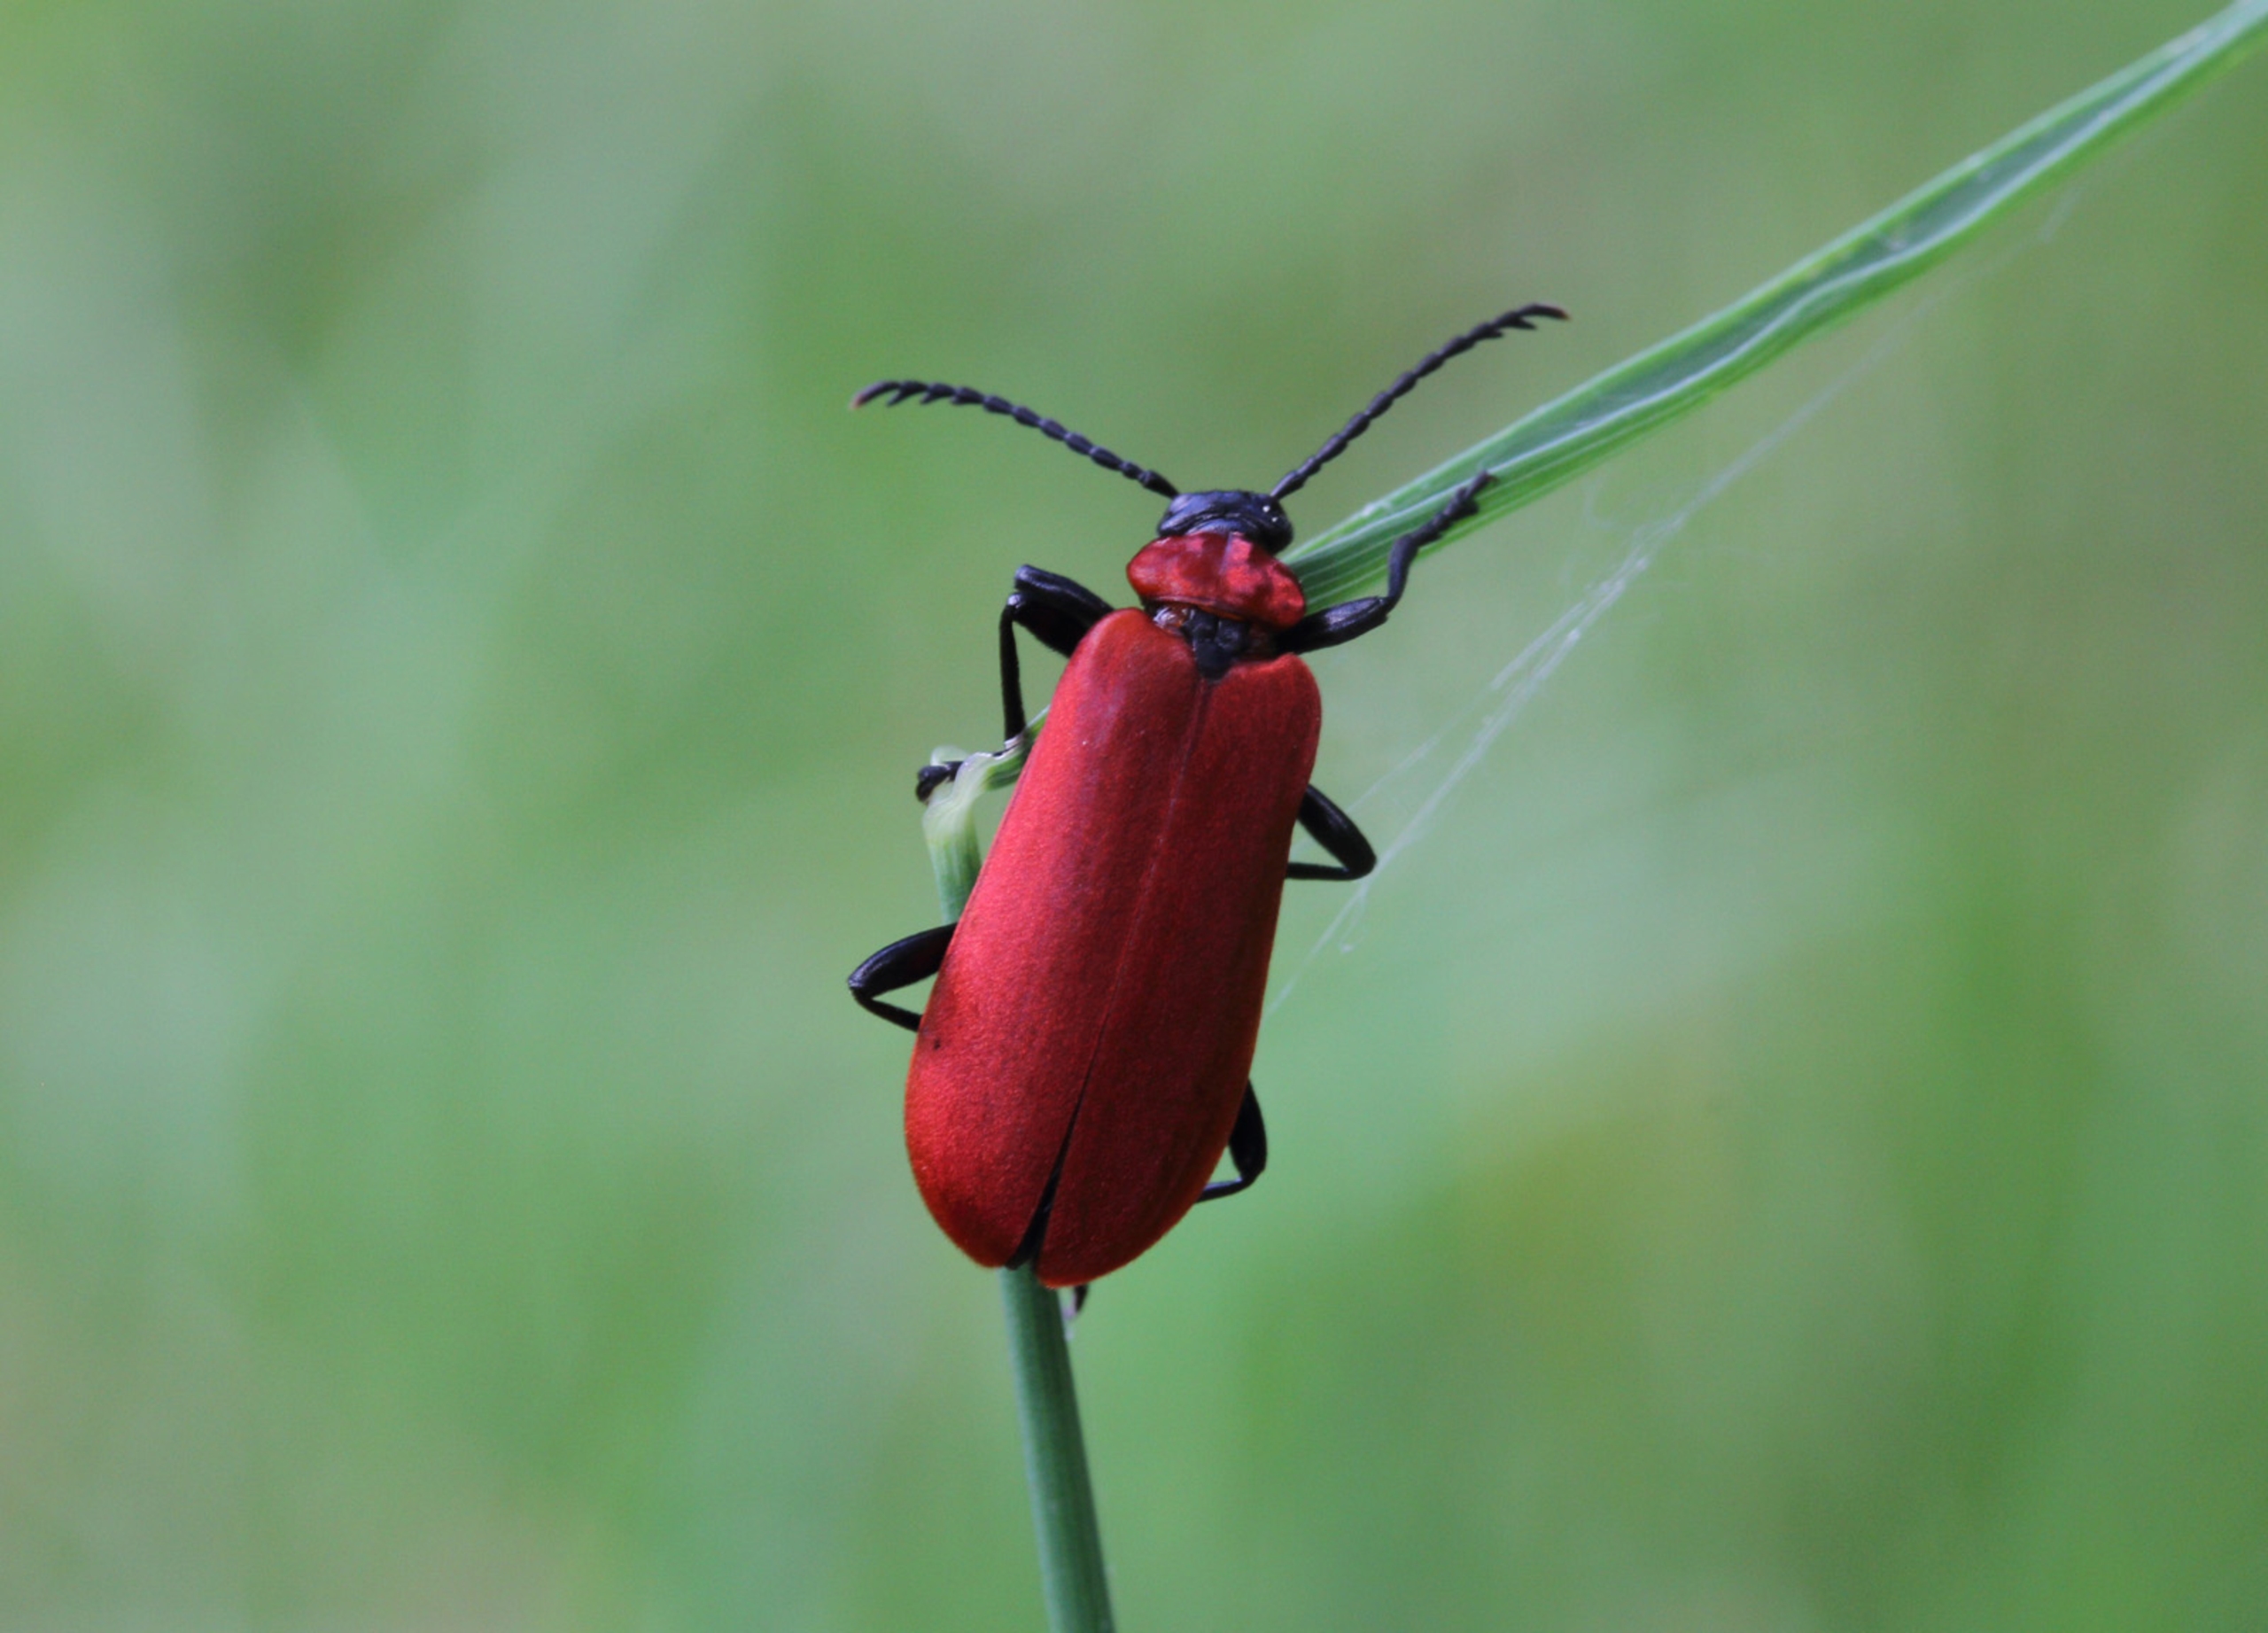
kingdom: Animalia
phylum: Arthropoda
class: Insecta
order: Coleoptera
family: Pyrochroidae
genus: Pyrochroa
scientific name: Pyrochroa coccinea
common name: Sorthovedet kardinalbille
